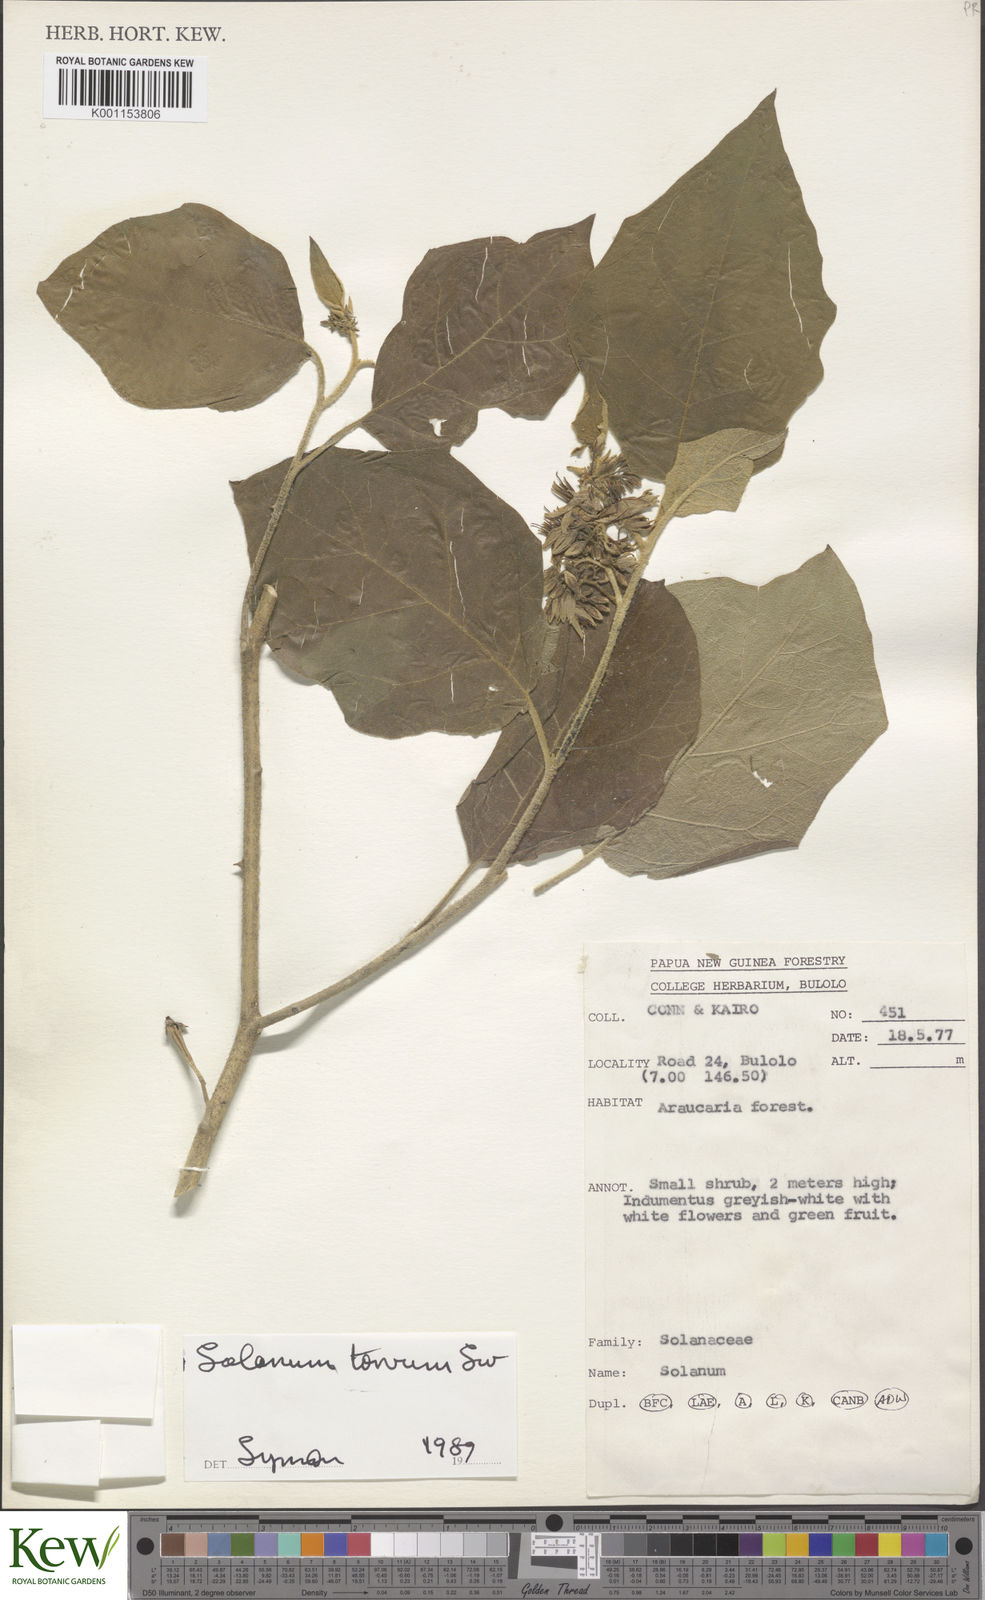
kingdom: Plantae
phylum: Tracheophyta
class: Magnoliopsida
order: Solanales
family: Solanaceae
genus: Solanum
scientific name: Solanum torvum
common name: Turkey berry
